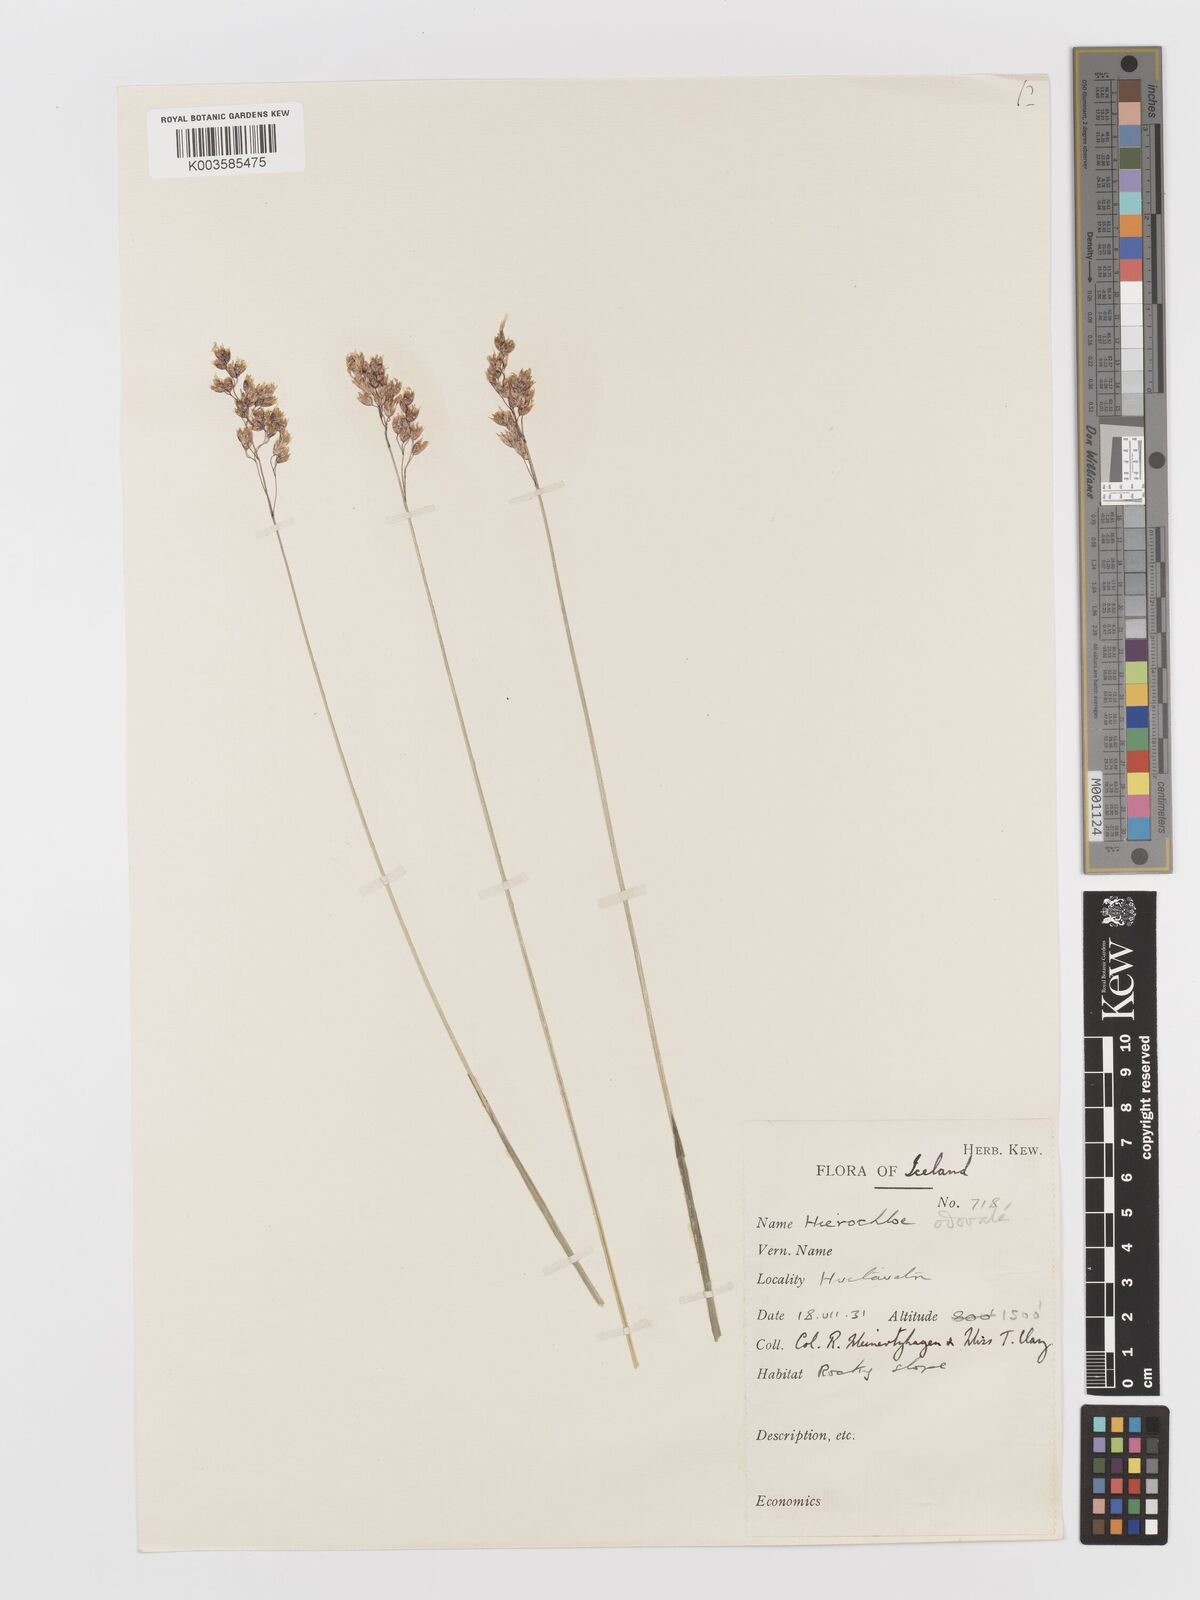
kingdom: Plantae
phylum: Tracheophyta
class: Liliopsida
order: Poales
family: Poaceae
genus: Anthoxanthum
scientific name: Anthoxanthum nitens
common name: Holy grass
